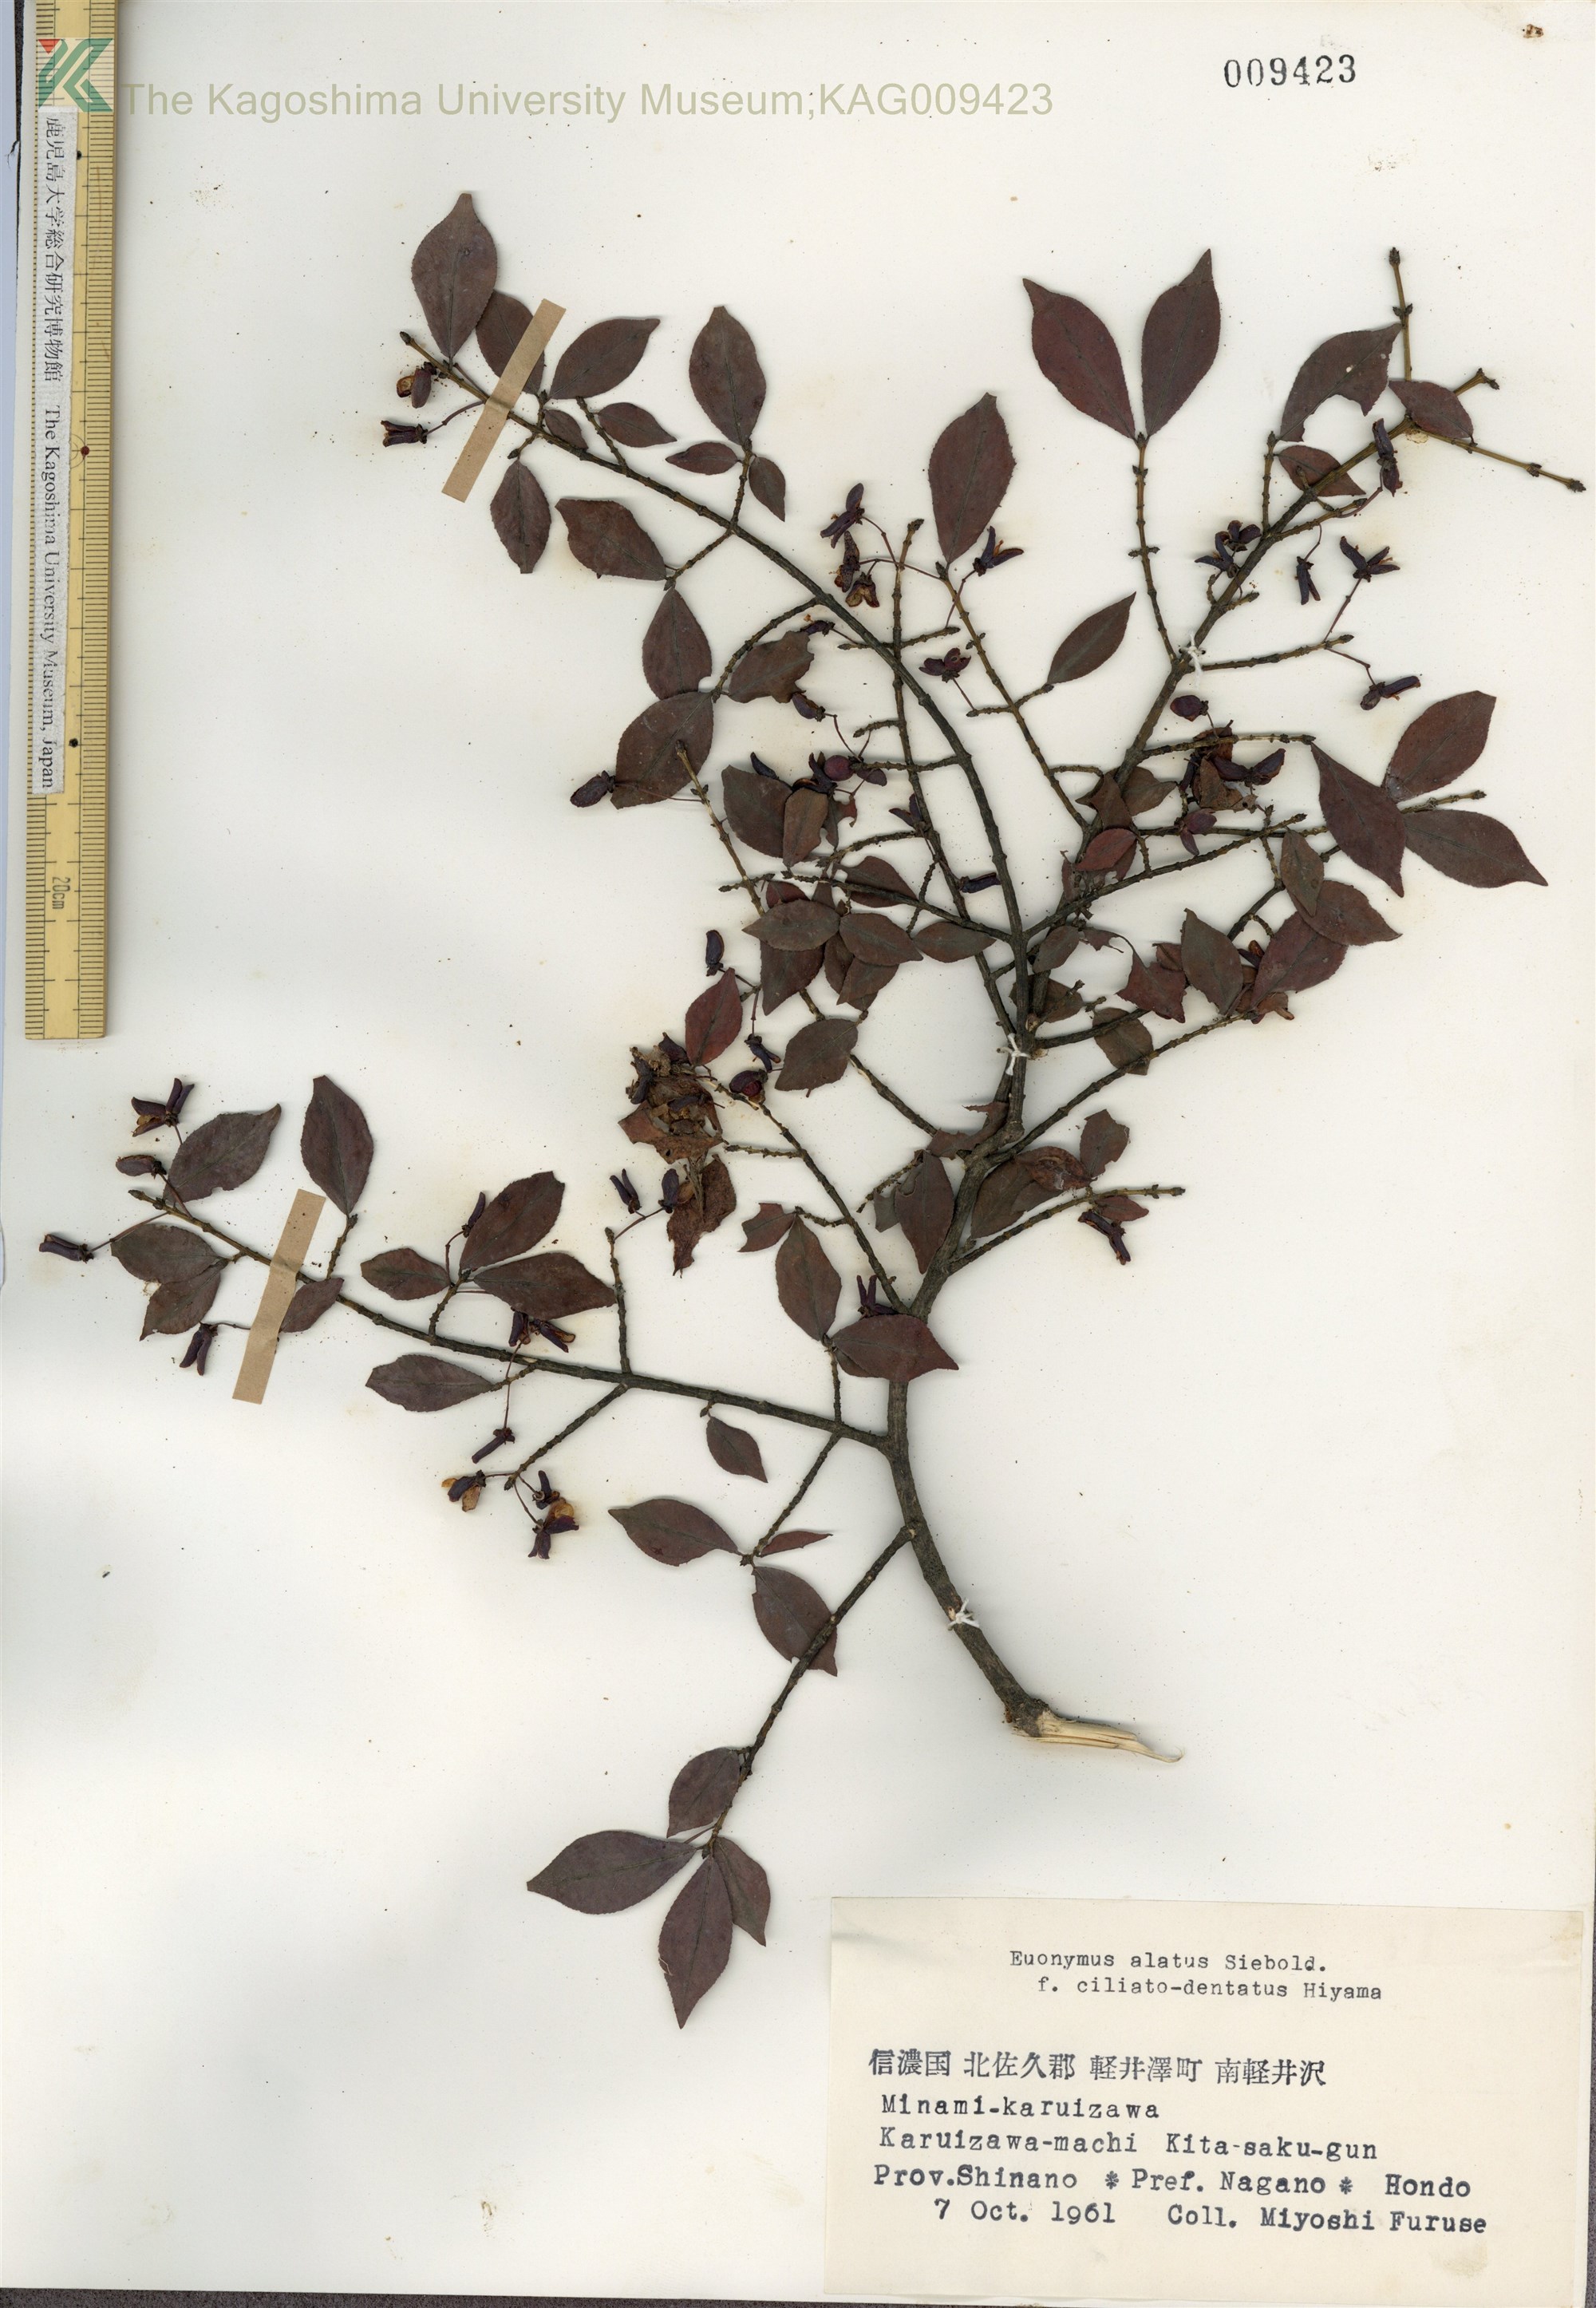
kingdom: Plantae
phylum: Tracheophyta
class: Magnoliopsida
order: Celastrales
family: Celastraceae
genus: Euonymus
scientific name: Euonymus alatus
